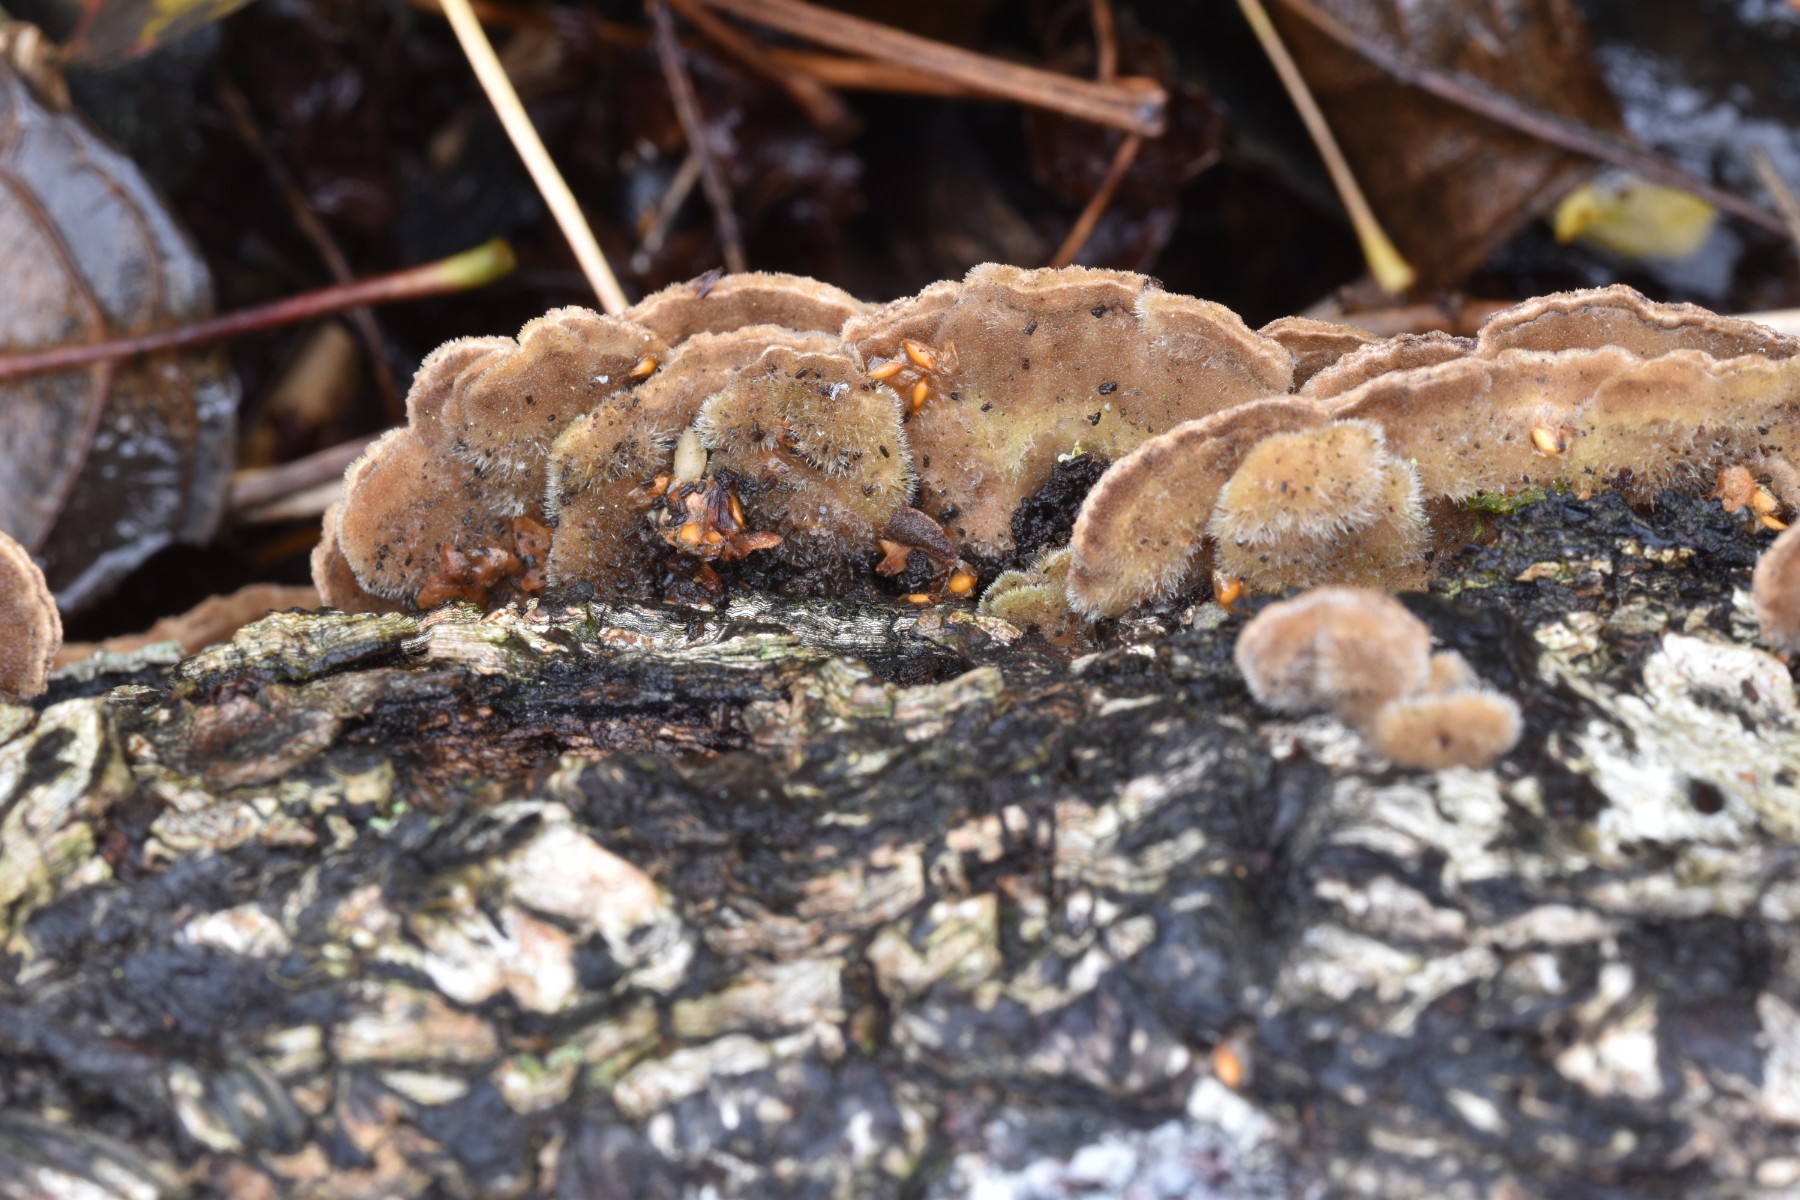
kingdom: Fungi
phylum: Basidiomycota
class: Agaricomycetes
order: Polyporales
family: Cerrenaceae
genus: Cerrena
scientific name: Cerrena unicolor
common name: ensfarvet læderporesvamp
